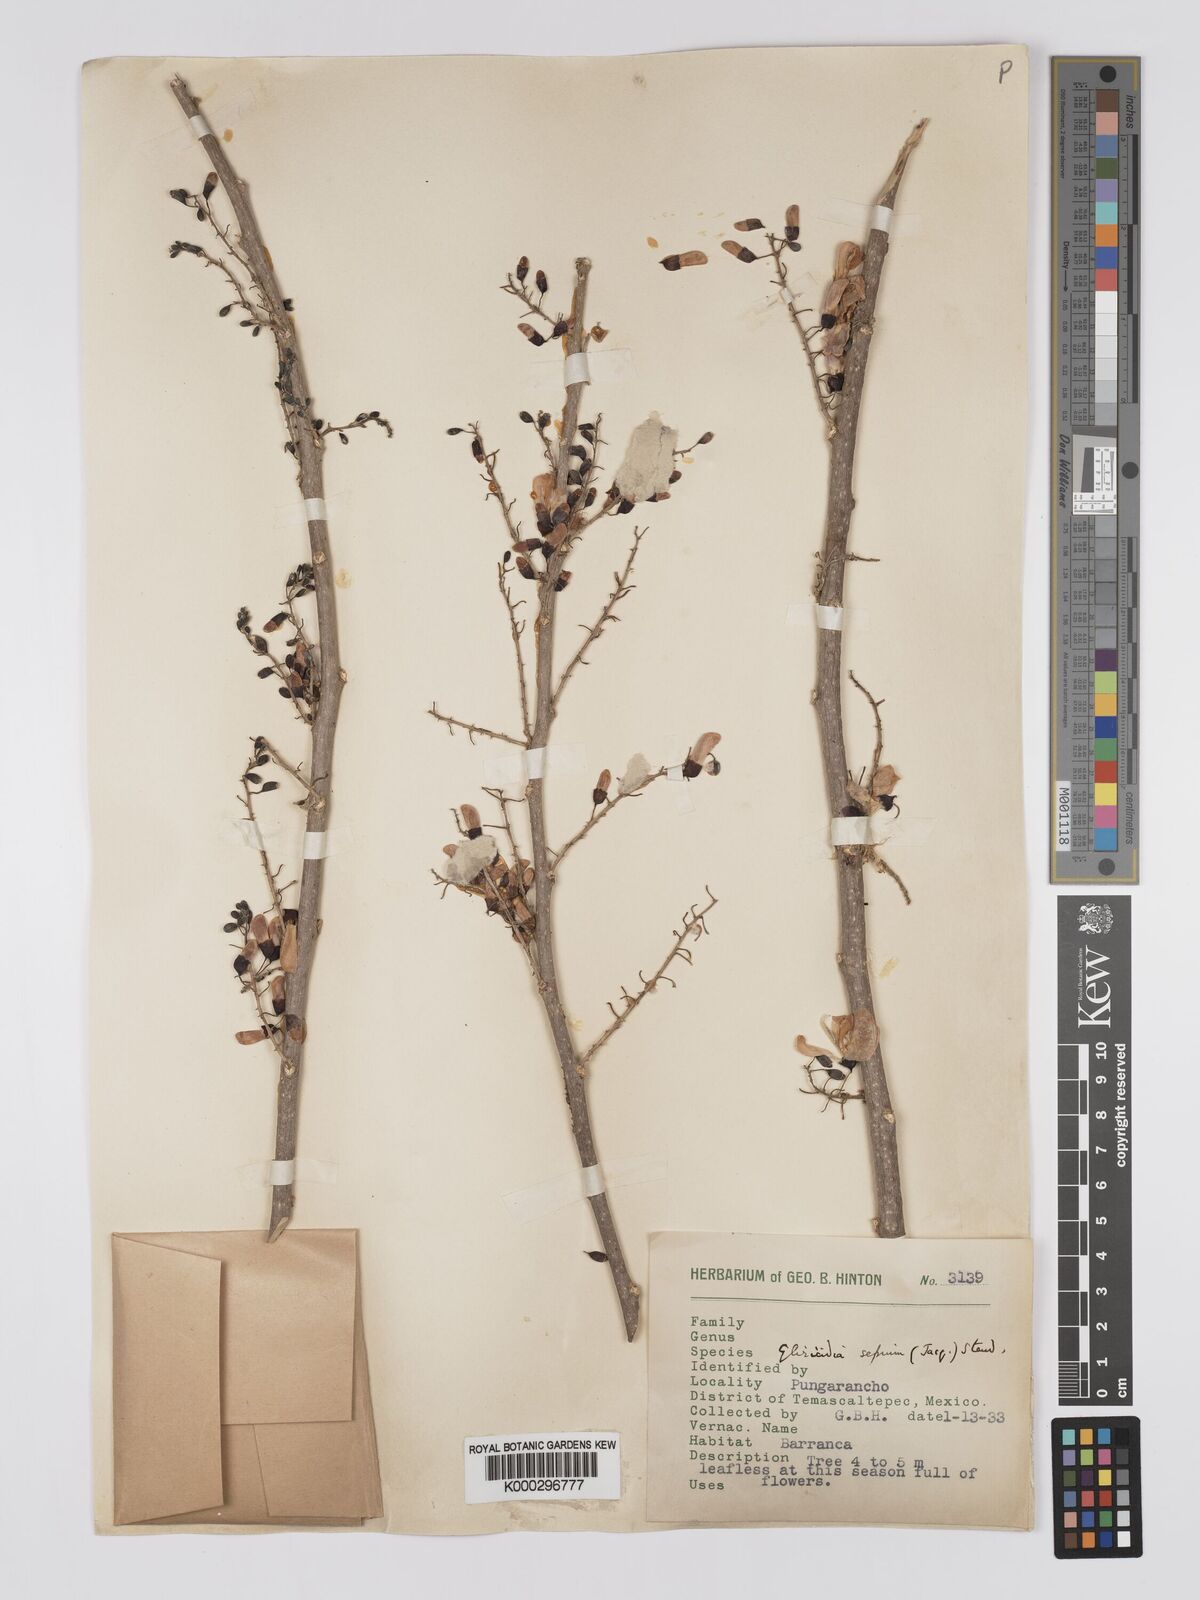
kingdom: Plantae
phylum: Tracheophyta
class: Magnoliopsida
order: Fabales
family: Fabaceae
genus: Gliricidia
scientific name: Gliricidia sepium
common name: Quickstick
